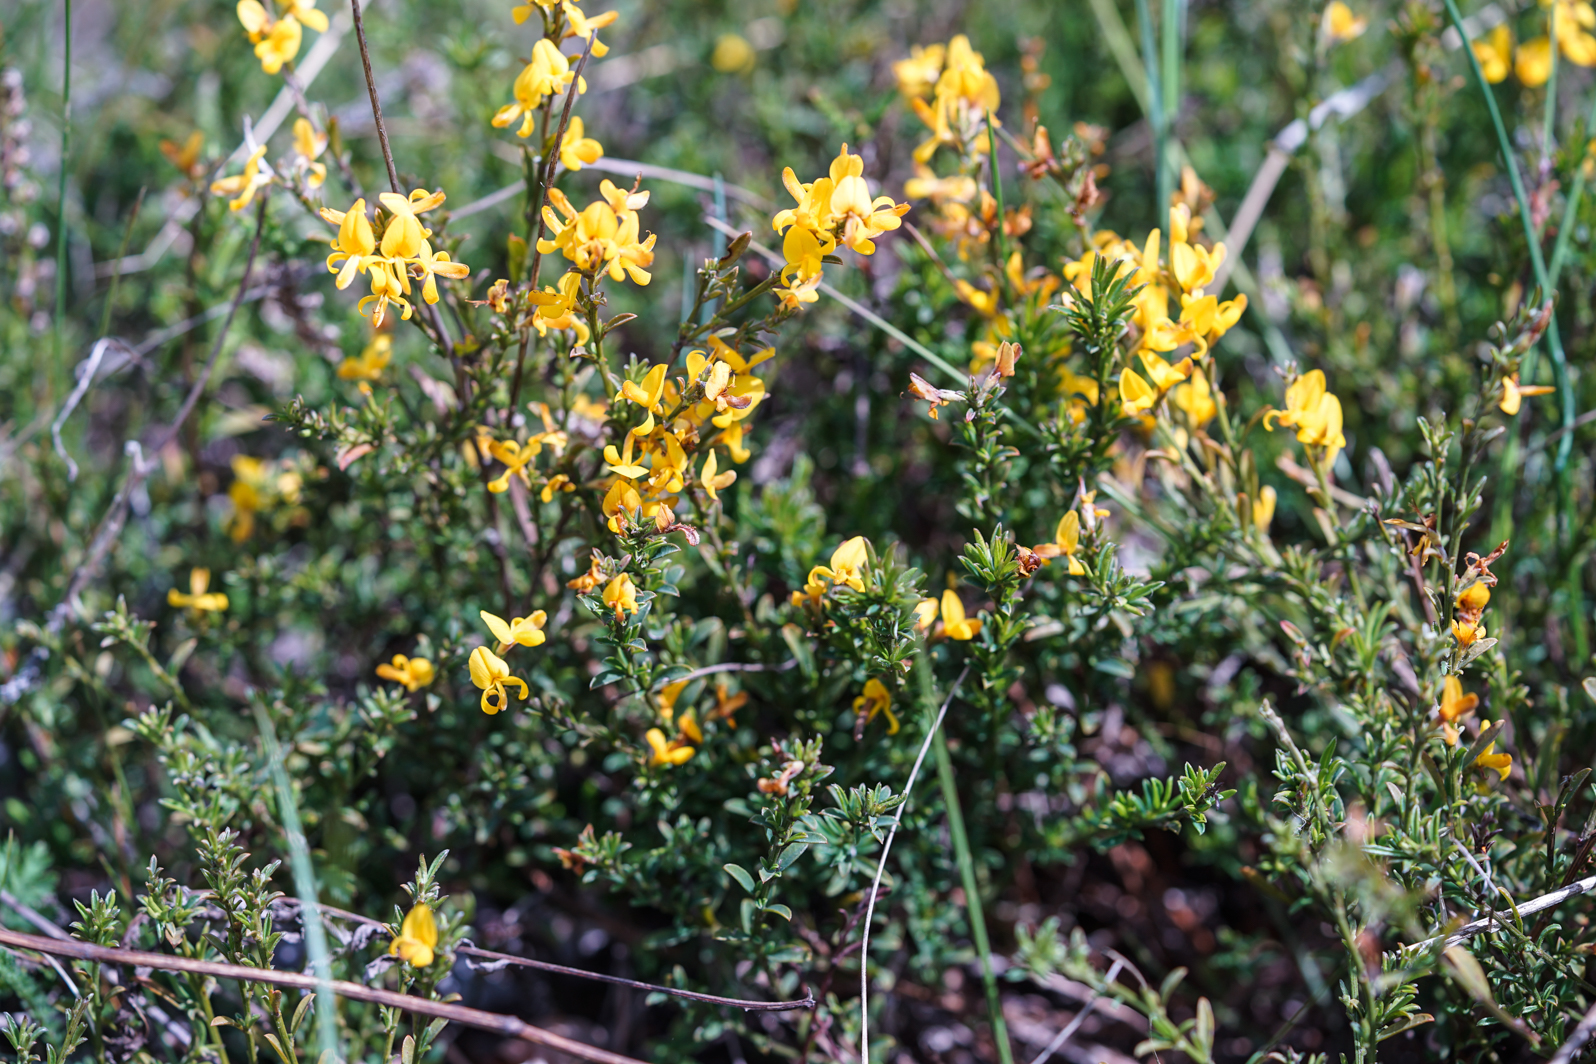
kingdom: Plantae
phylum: Tracheophyta
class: Magnoliopsida
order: Fabales
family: Fabaceae
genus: Genista
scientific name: Genista pilosa
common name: Hairy greenweed
